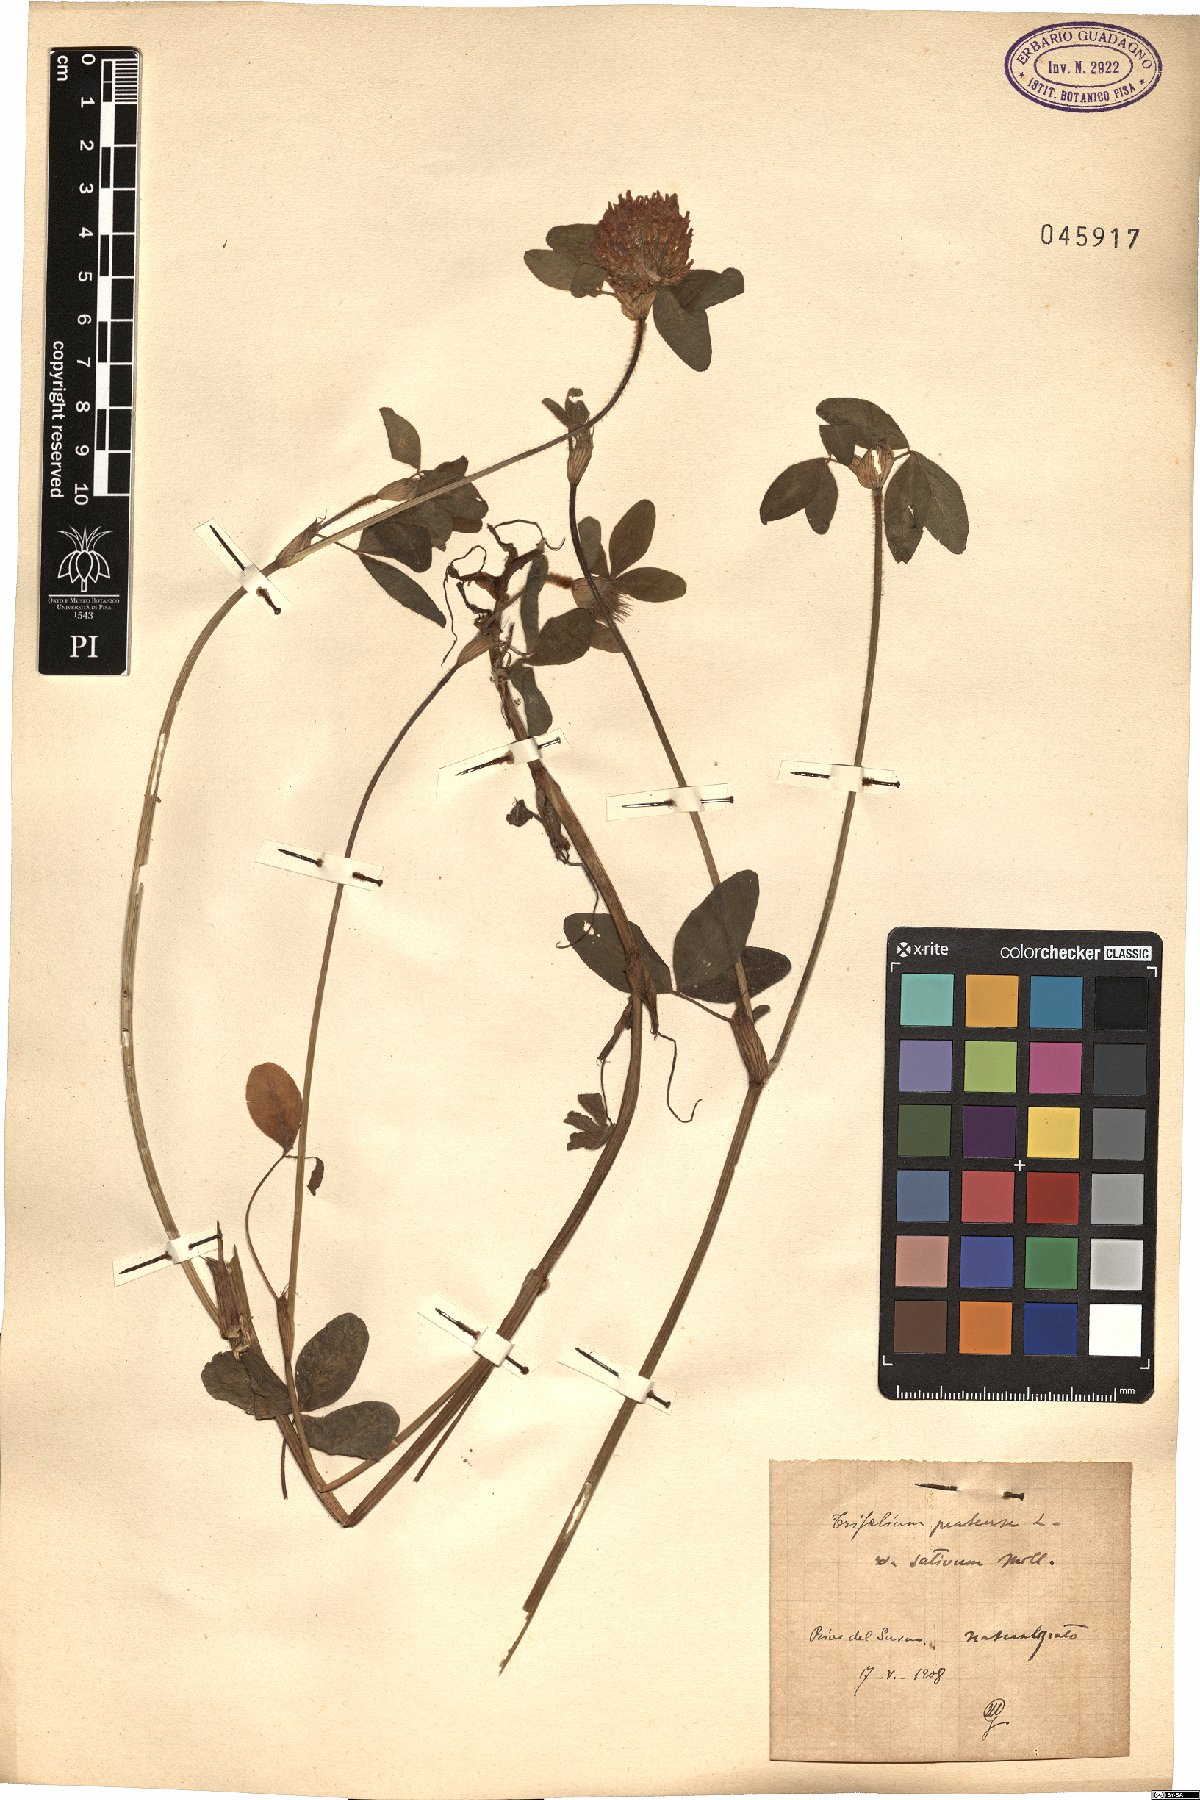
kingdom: Plantae
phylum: Tracheophyta
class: Magnoliopsida
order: Fabales
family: Fabaceae
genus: Trifolium
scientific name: Trifolium pratense
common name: Red clover
